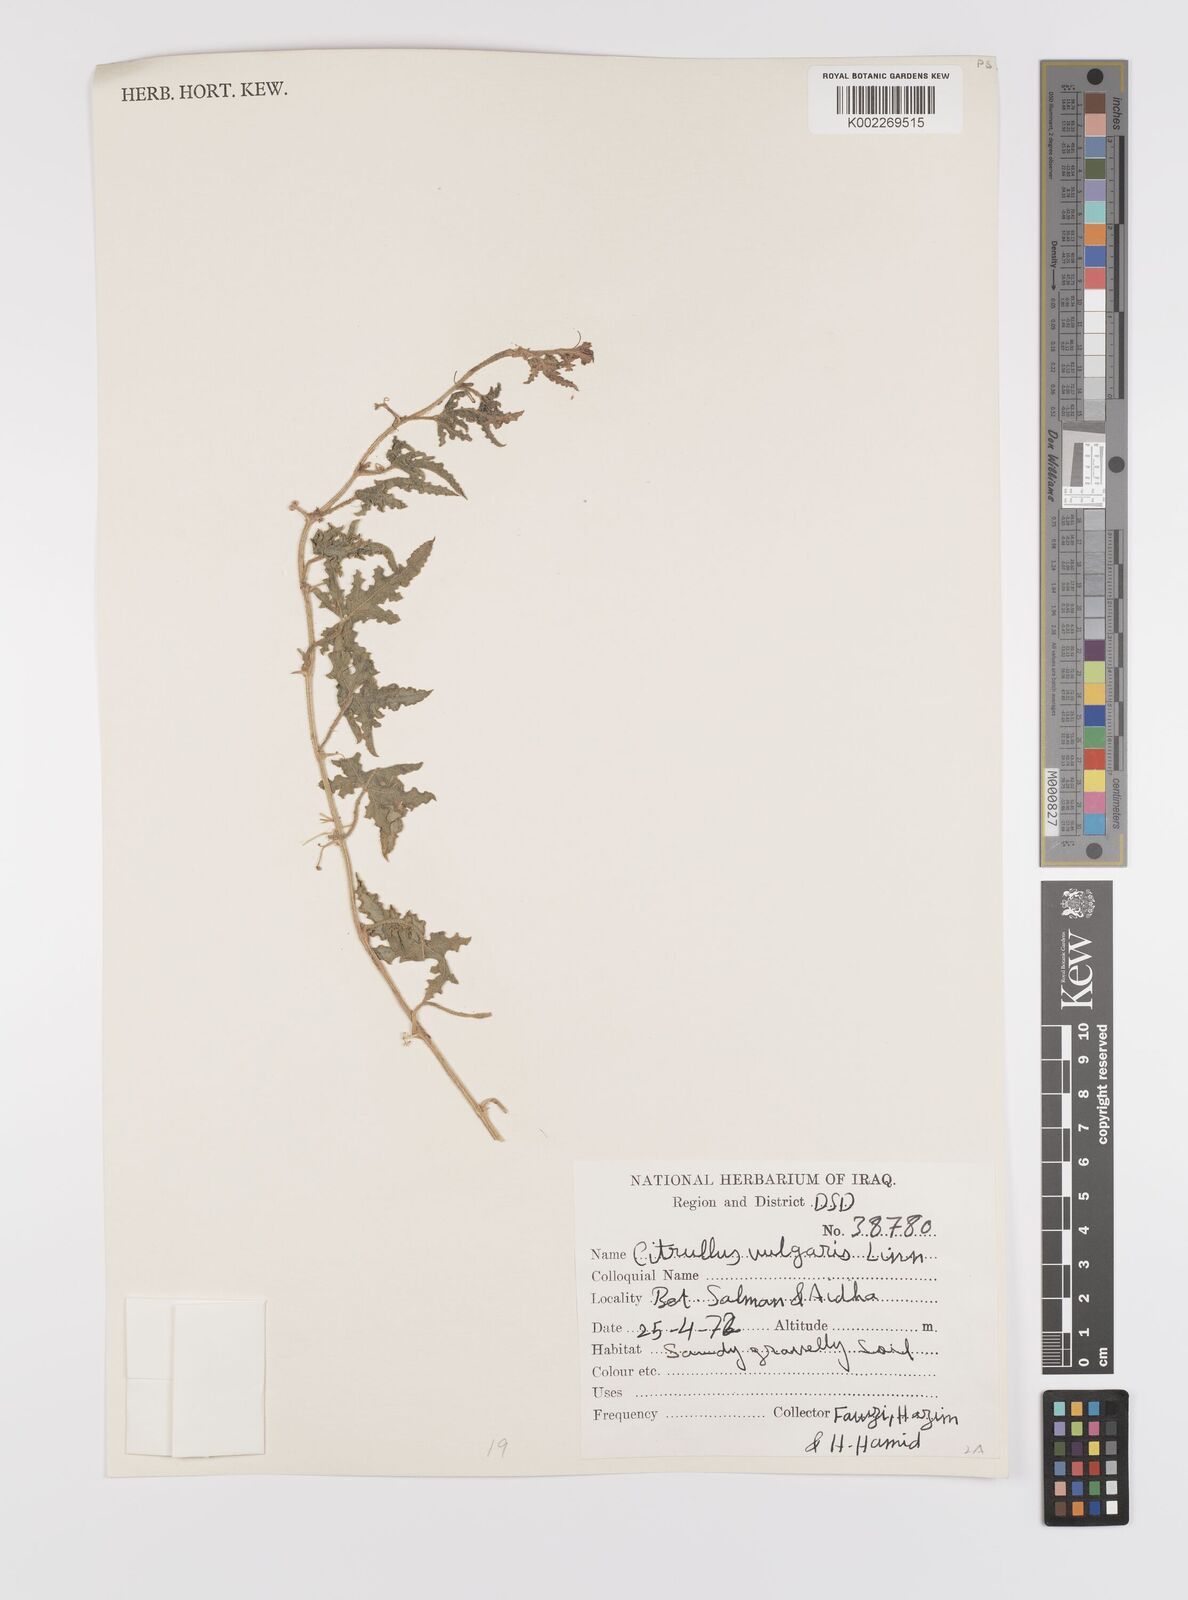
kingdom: Plantae
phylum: Tracheophyta
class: Magnoliopsida
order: Cucurbitales
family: Cucurbitaceae
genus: Citrullus
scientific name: Citrullus colocynthis
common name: Colocynth
